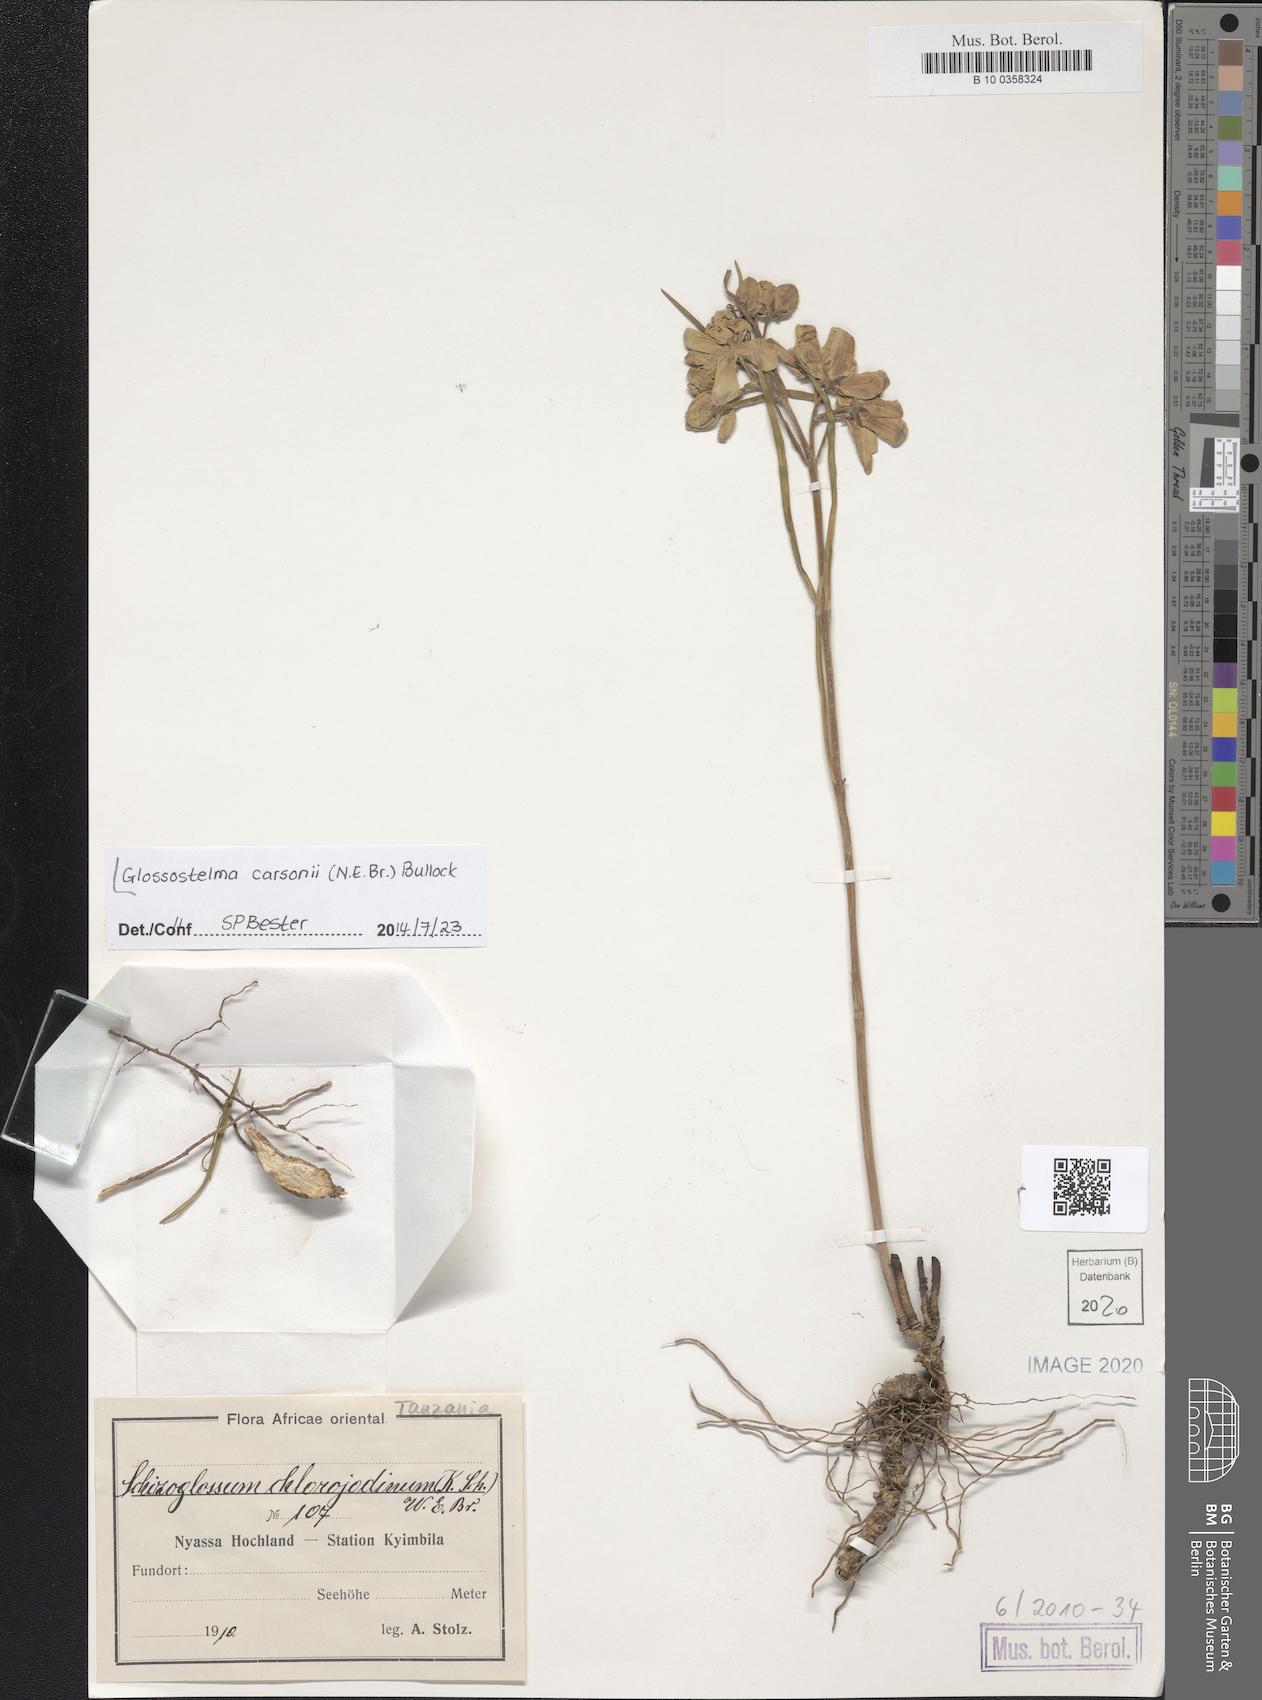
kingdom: Plantae
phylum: Tracheophyta
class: Magnoliopsida
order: Gentianales
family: Apocynaceae
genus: Glossostelma
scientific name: Glossostelma carsonii
